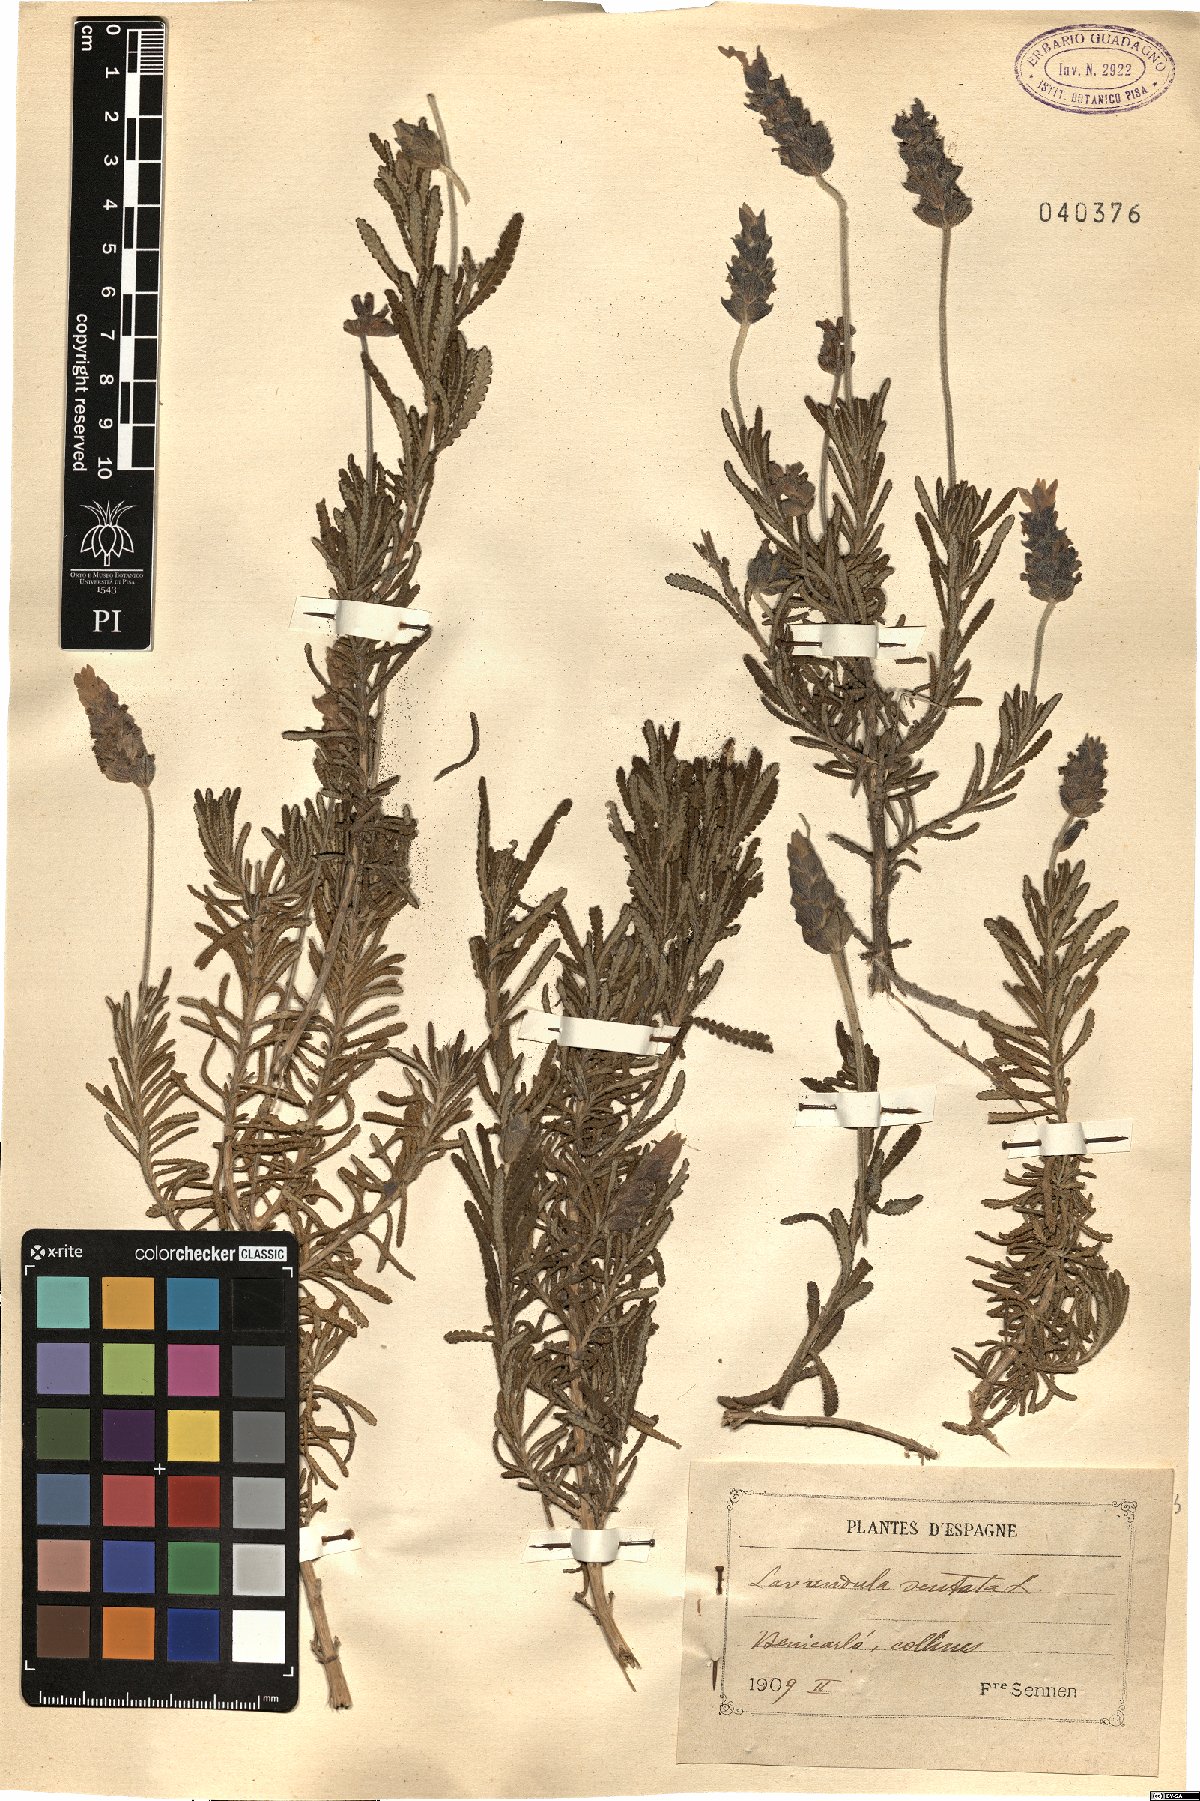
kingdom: Plantae
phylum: Tracheophyta
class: Magnoliopsida
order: Lamiales
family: Lamiaceae
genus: Lavandula
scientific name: Lavandula dentata
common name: French lavender
